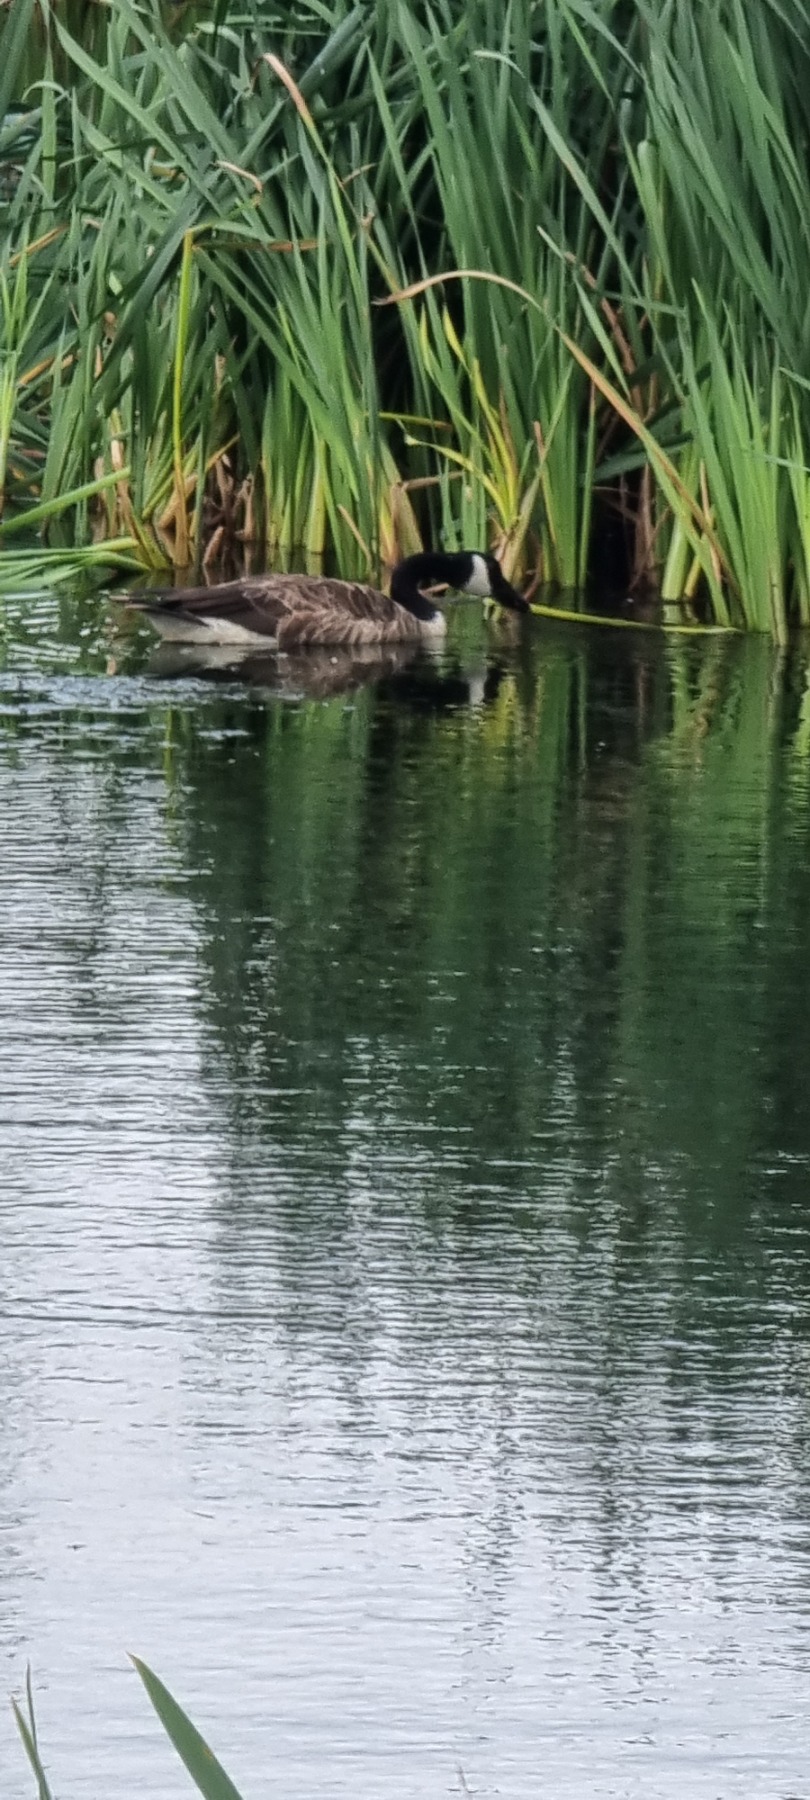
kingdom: Animalia
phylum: Chordata
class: Aves
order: Anseriformes
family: Anatidae
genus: Branta
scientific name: Branta canadensis
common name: Canadagås
